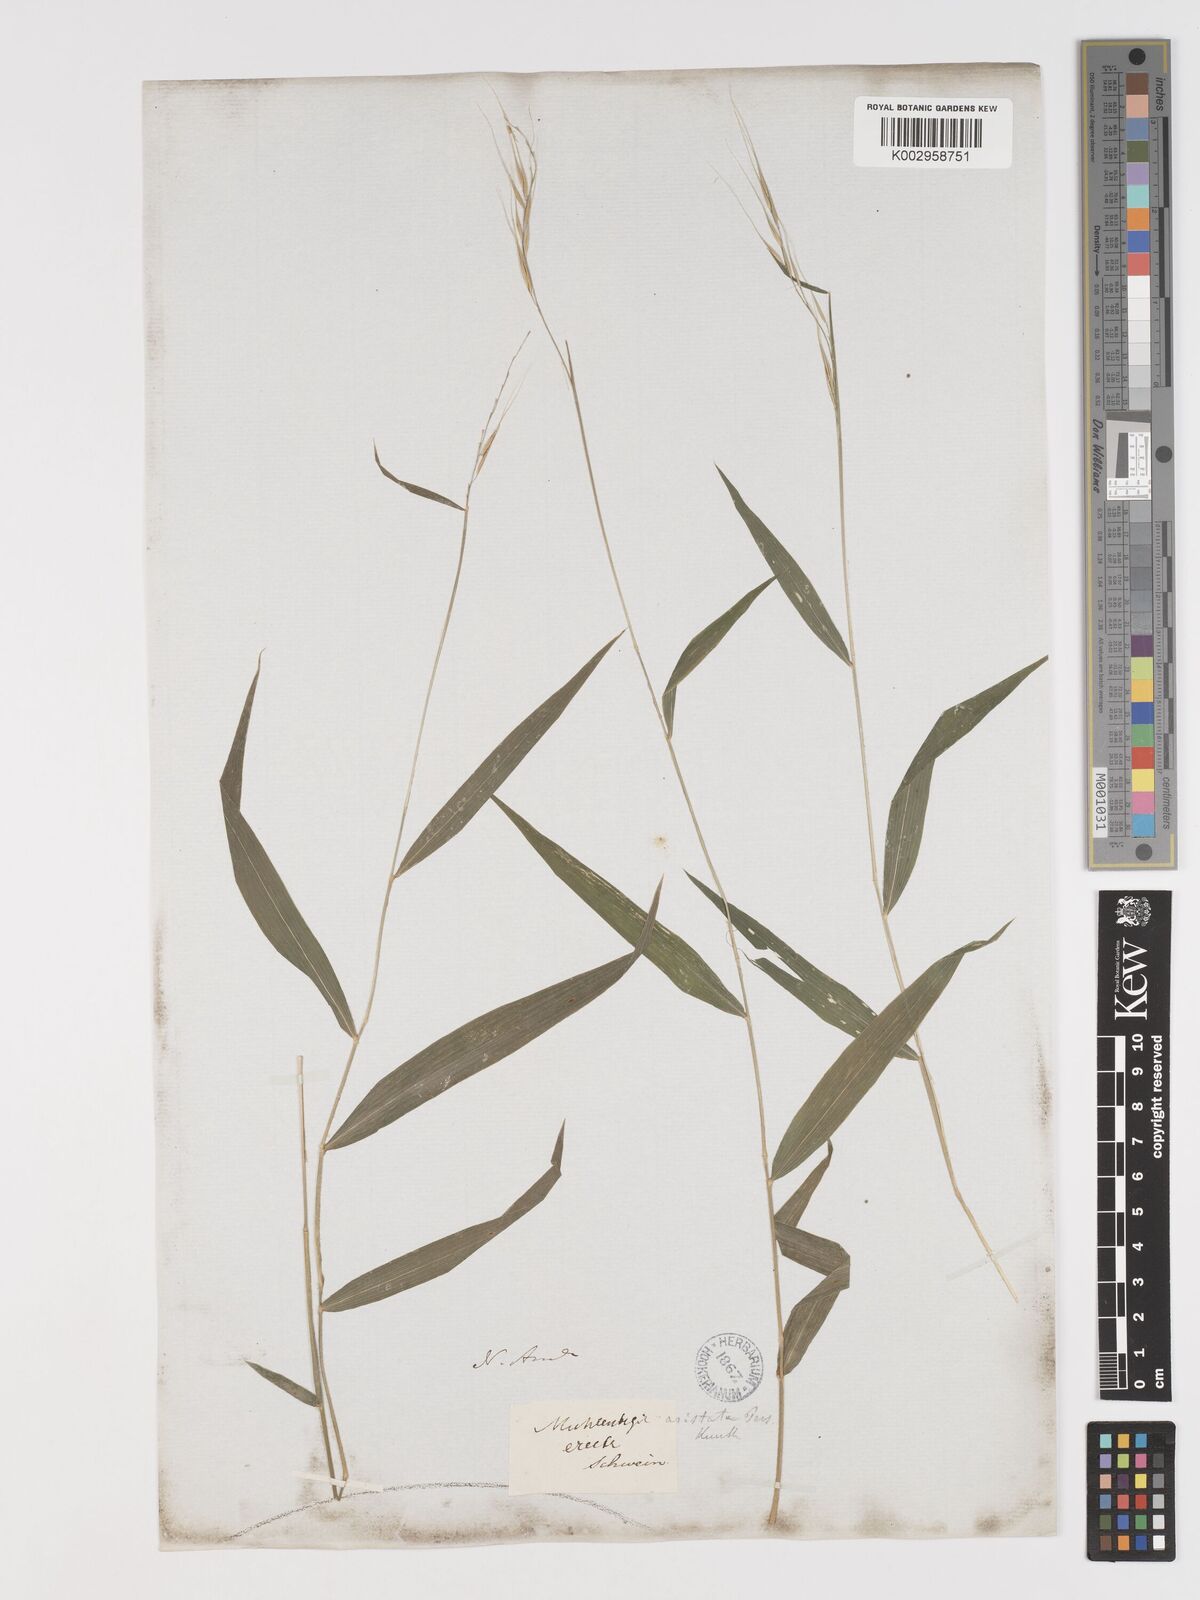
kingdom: Plantae
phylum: Tracheophyta
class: Liliopsida
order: Poales
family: Poaceae
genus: Brachyelytrum
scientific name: Brachyelytrum erectum
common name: Bearded shorthusk
